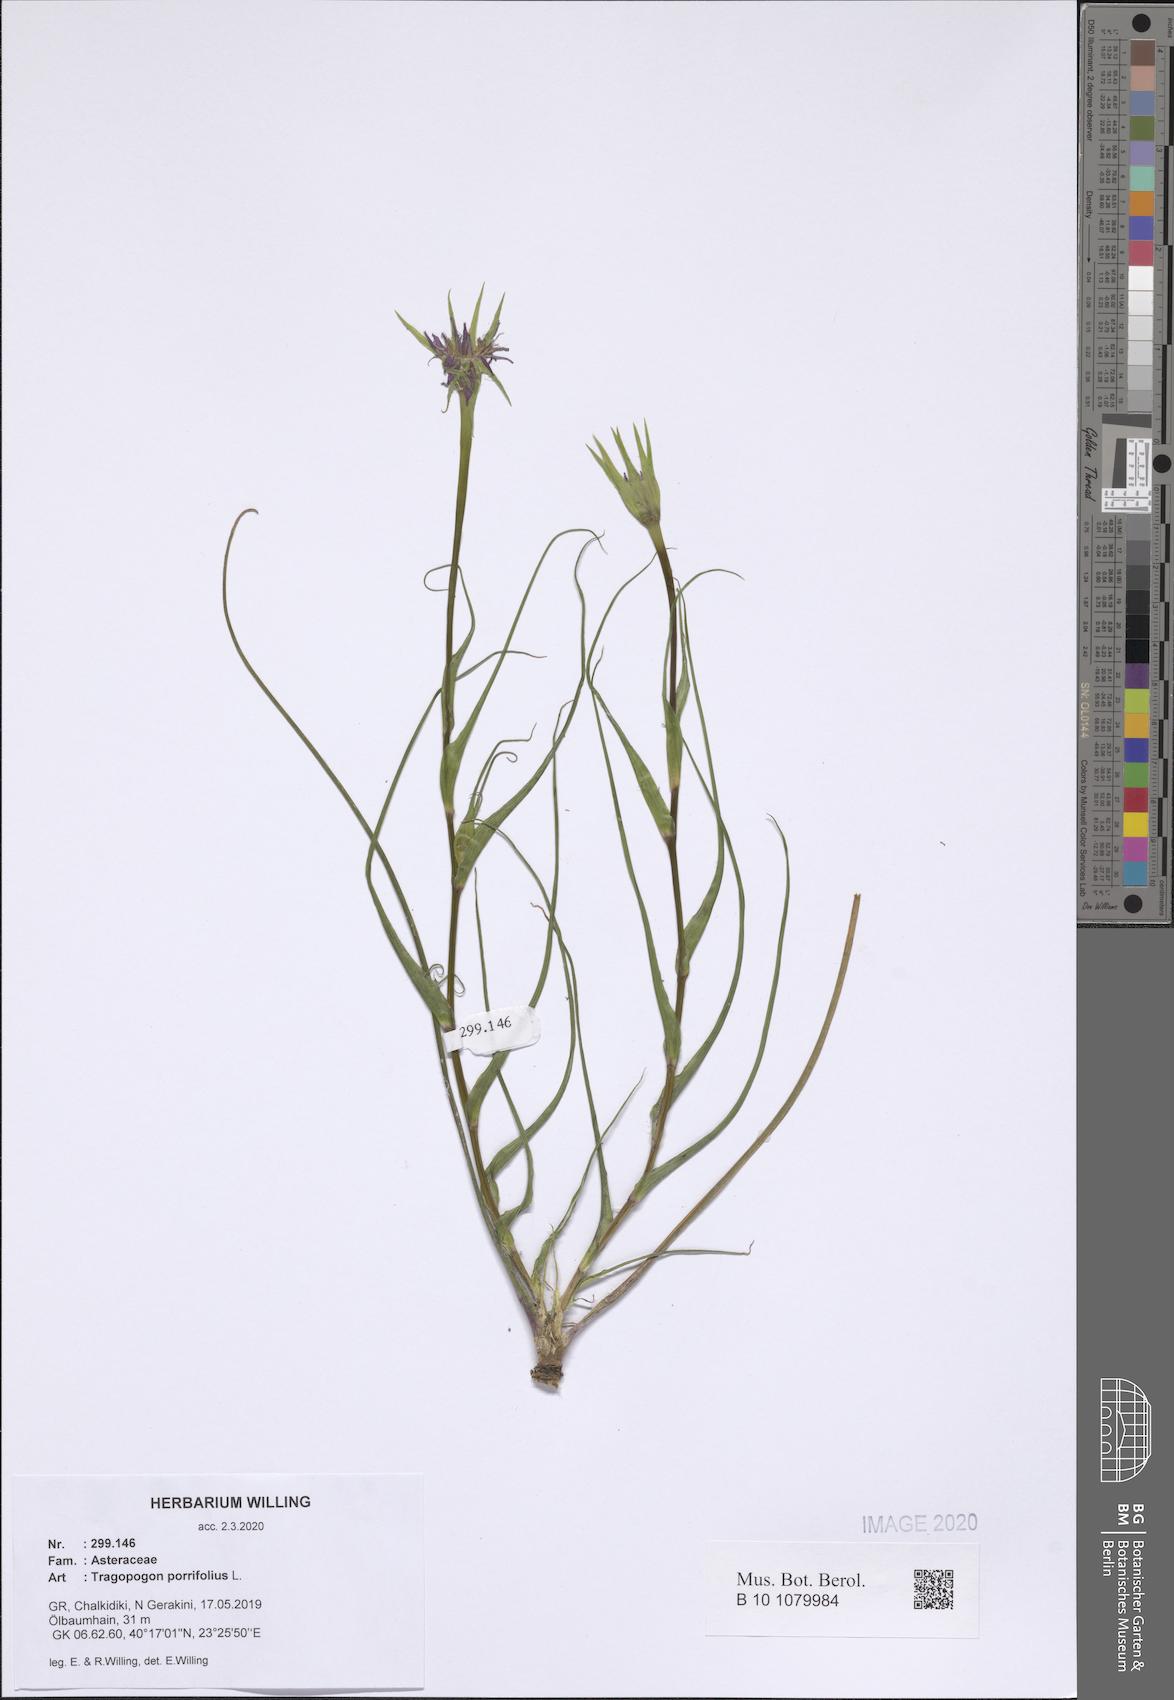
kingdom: Plantae
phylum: Tracheophyta
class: Magnoliopsida
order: Asterales
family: Asteraceae
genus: Tragopogon
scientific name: Tragopogon porrifolius
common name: Salsify
